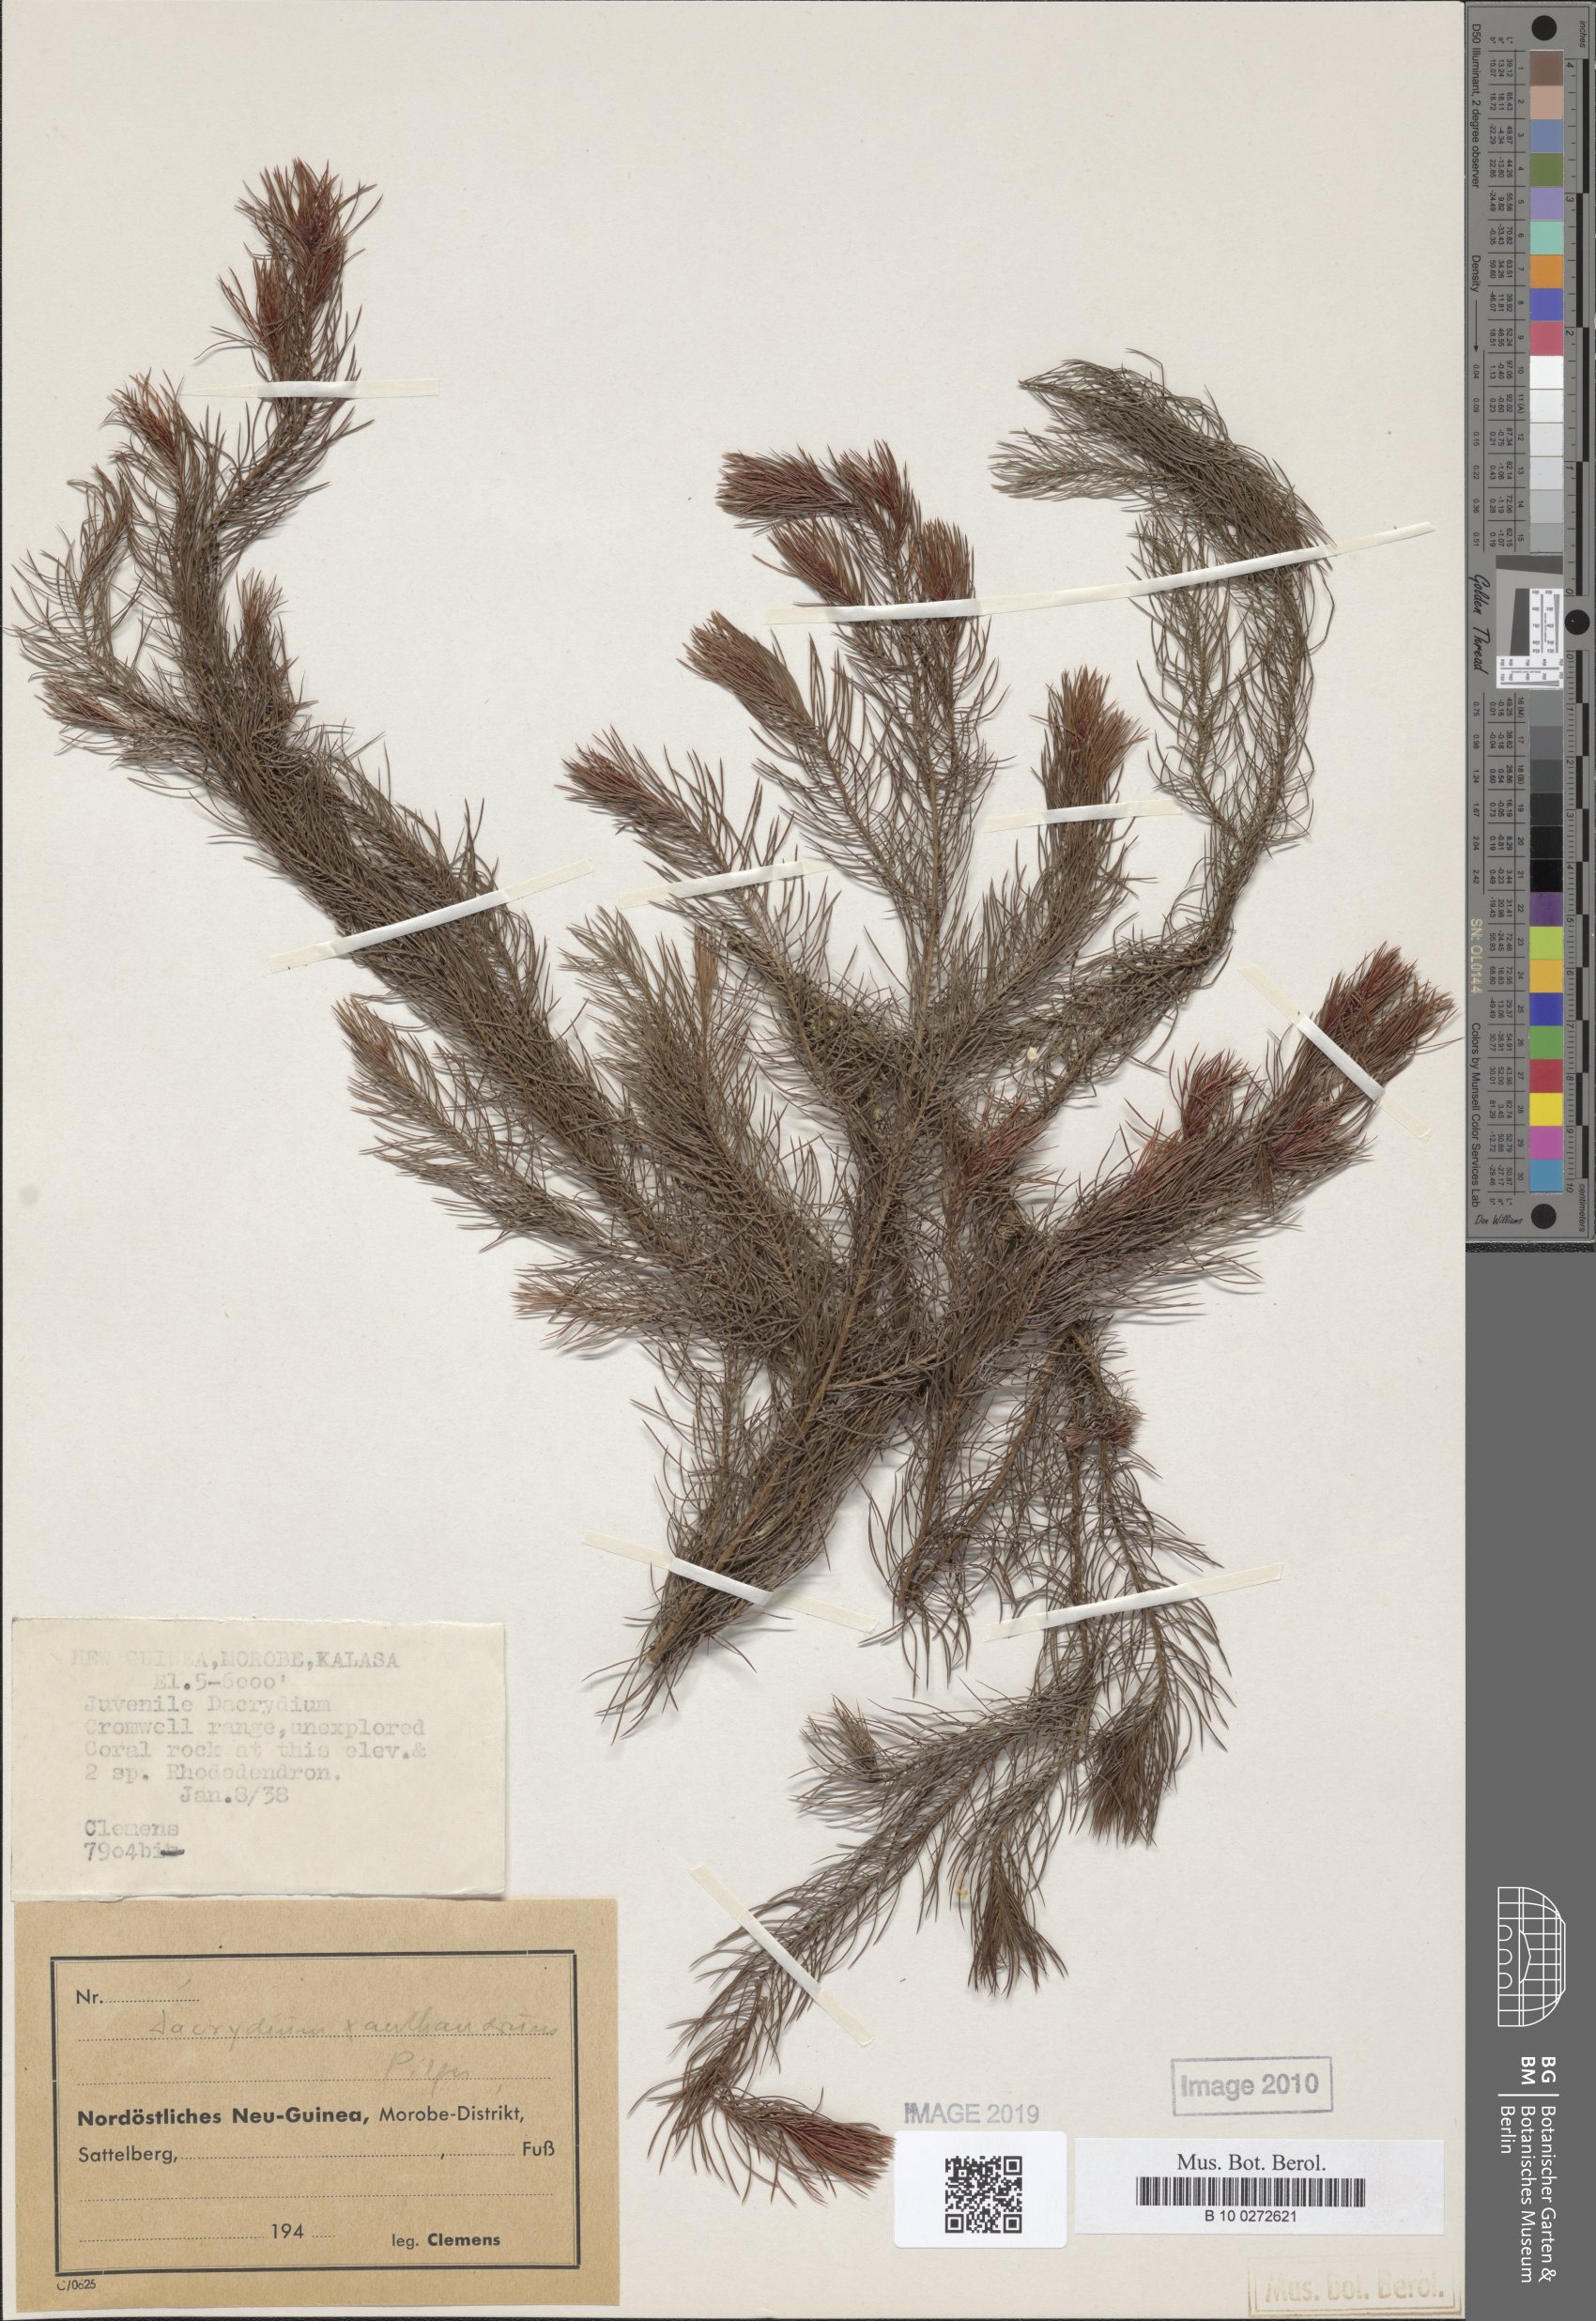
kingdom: Plantae
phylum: Tracheophyta
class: Pinopsida
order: Pinales
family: Podocarpaceae
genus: Dacrydium
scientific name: Dacrydium xanthandrum
